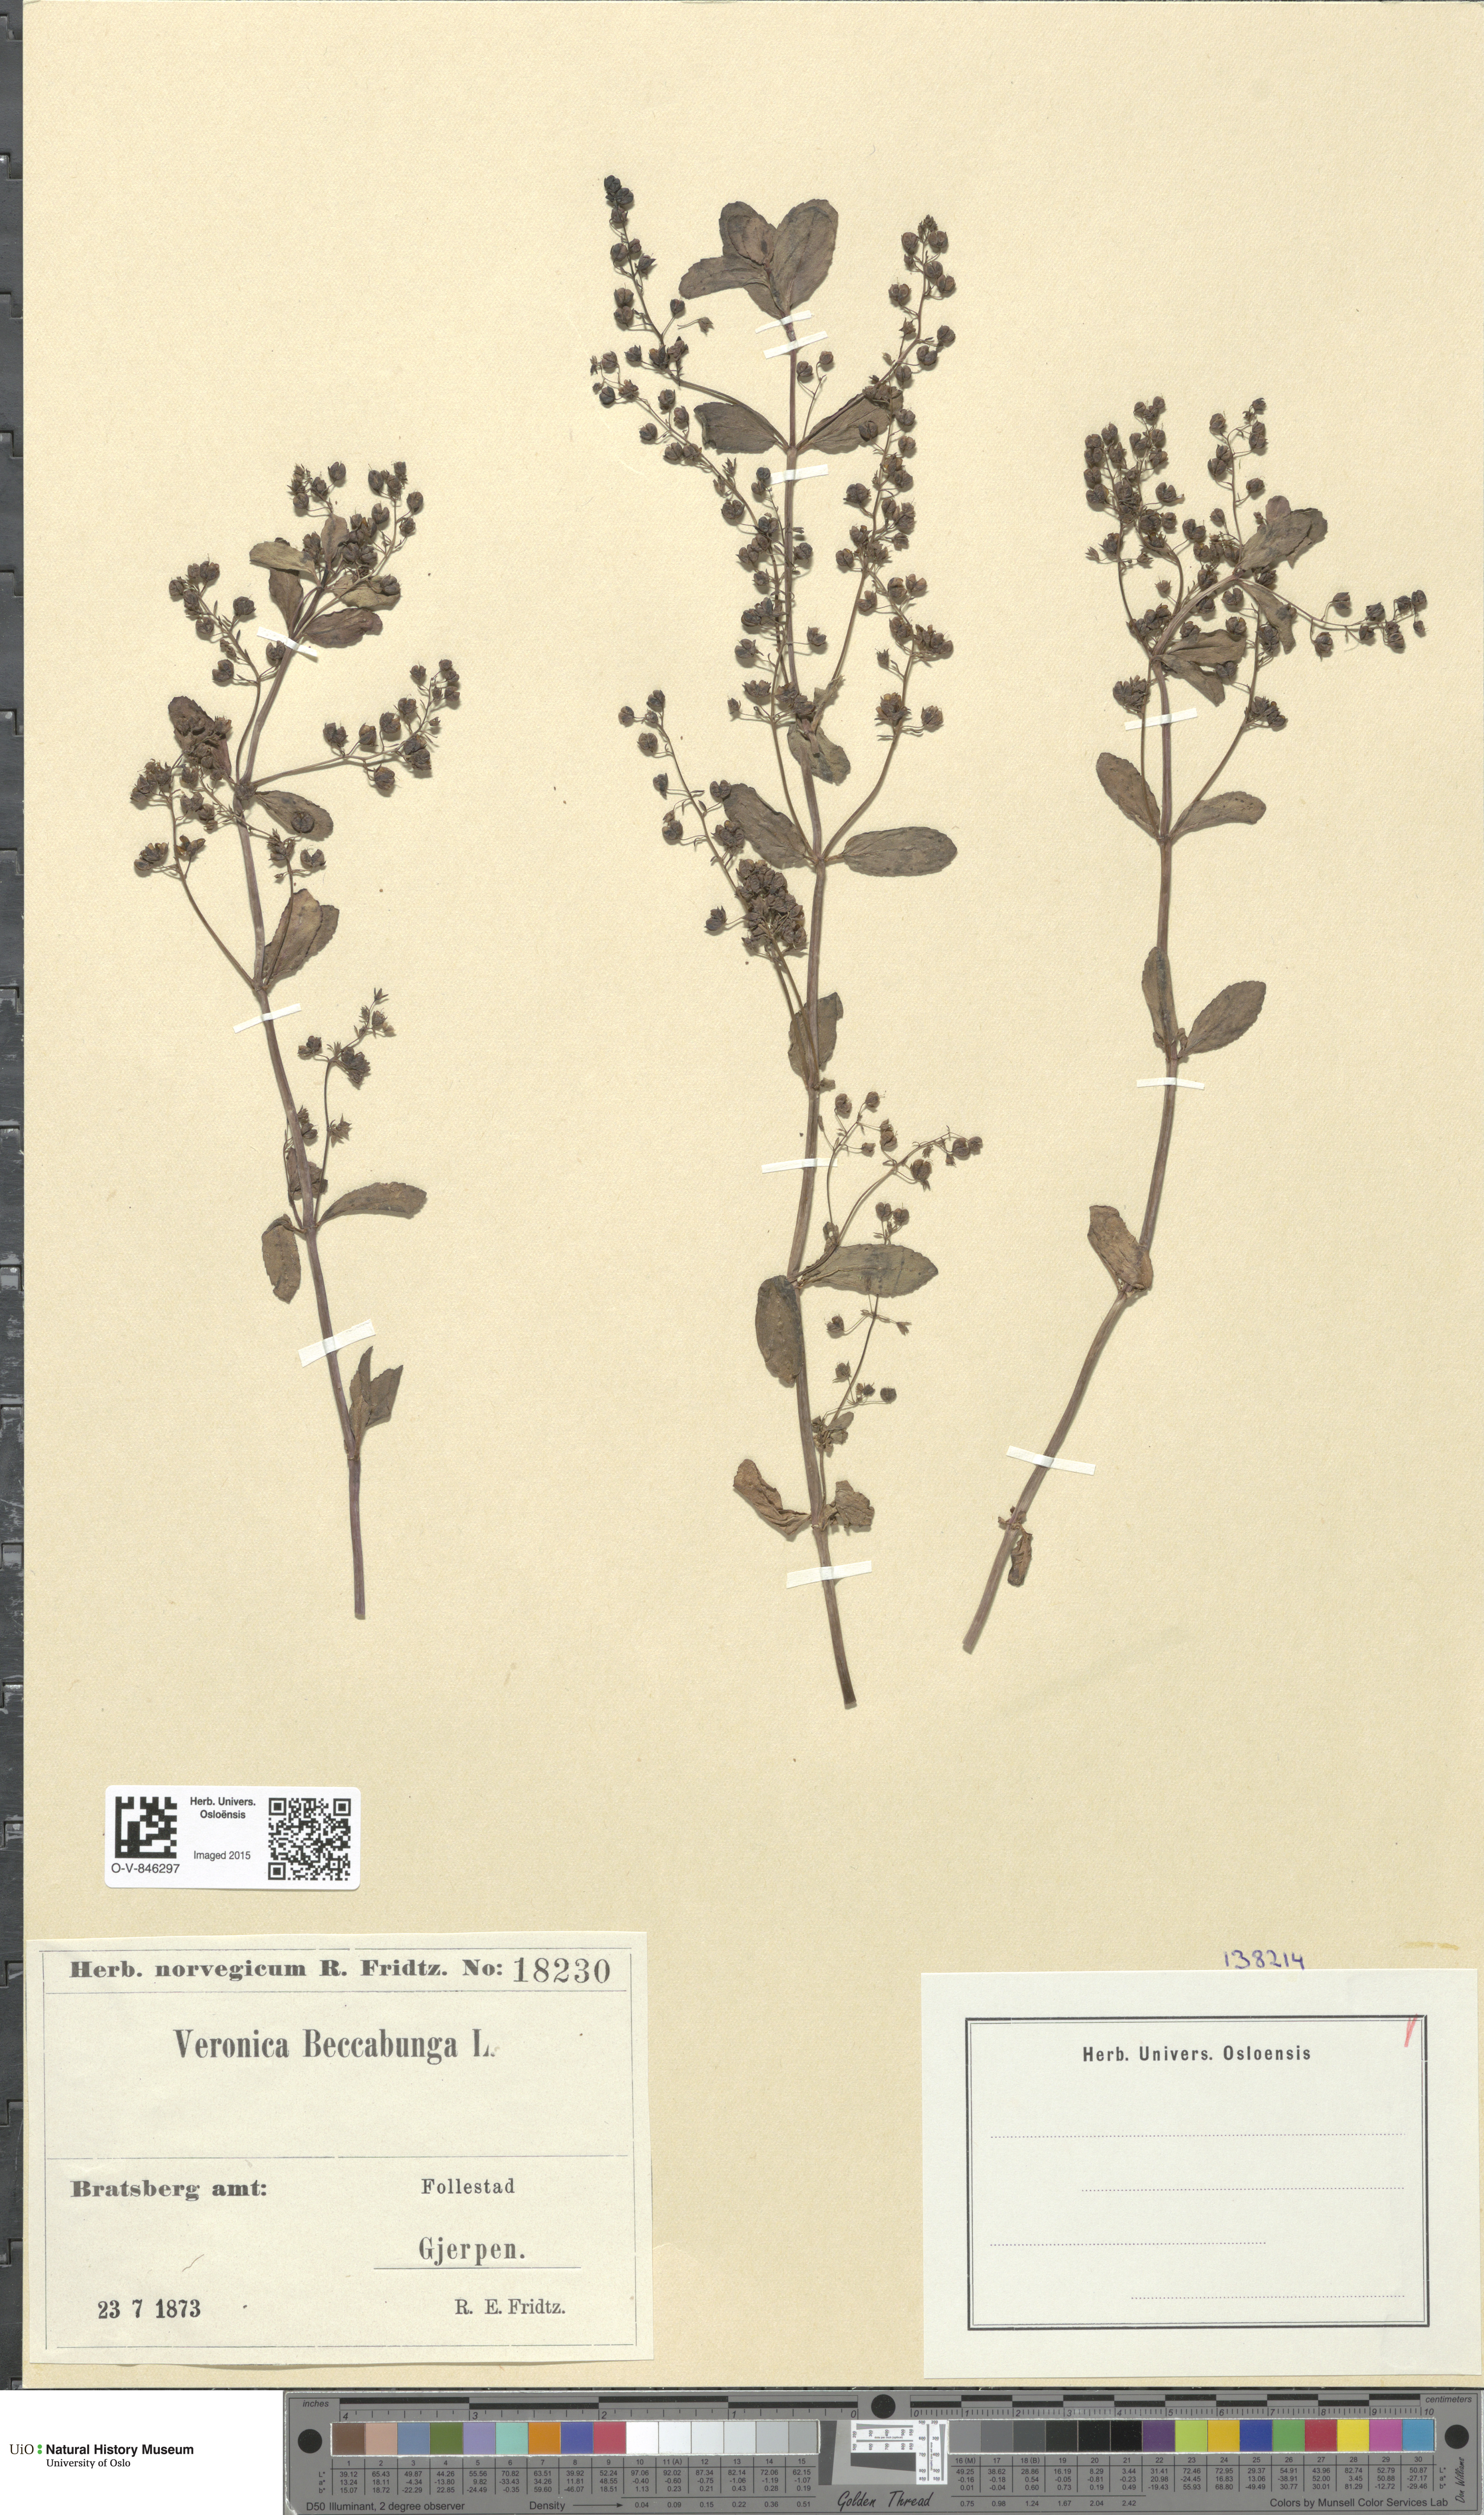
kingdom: Plantae
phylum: Tracheophyta
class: Magnoliopsida
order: Lamiales
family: Plantaginaceae
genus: Veronica
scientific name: Veronica beccabunga
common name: Brooklime
